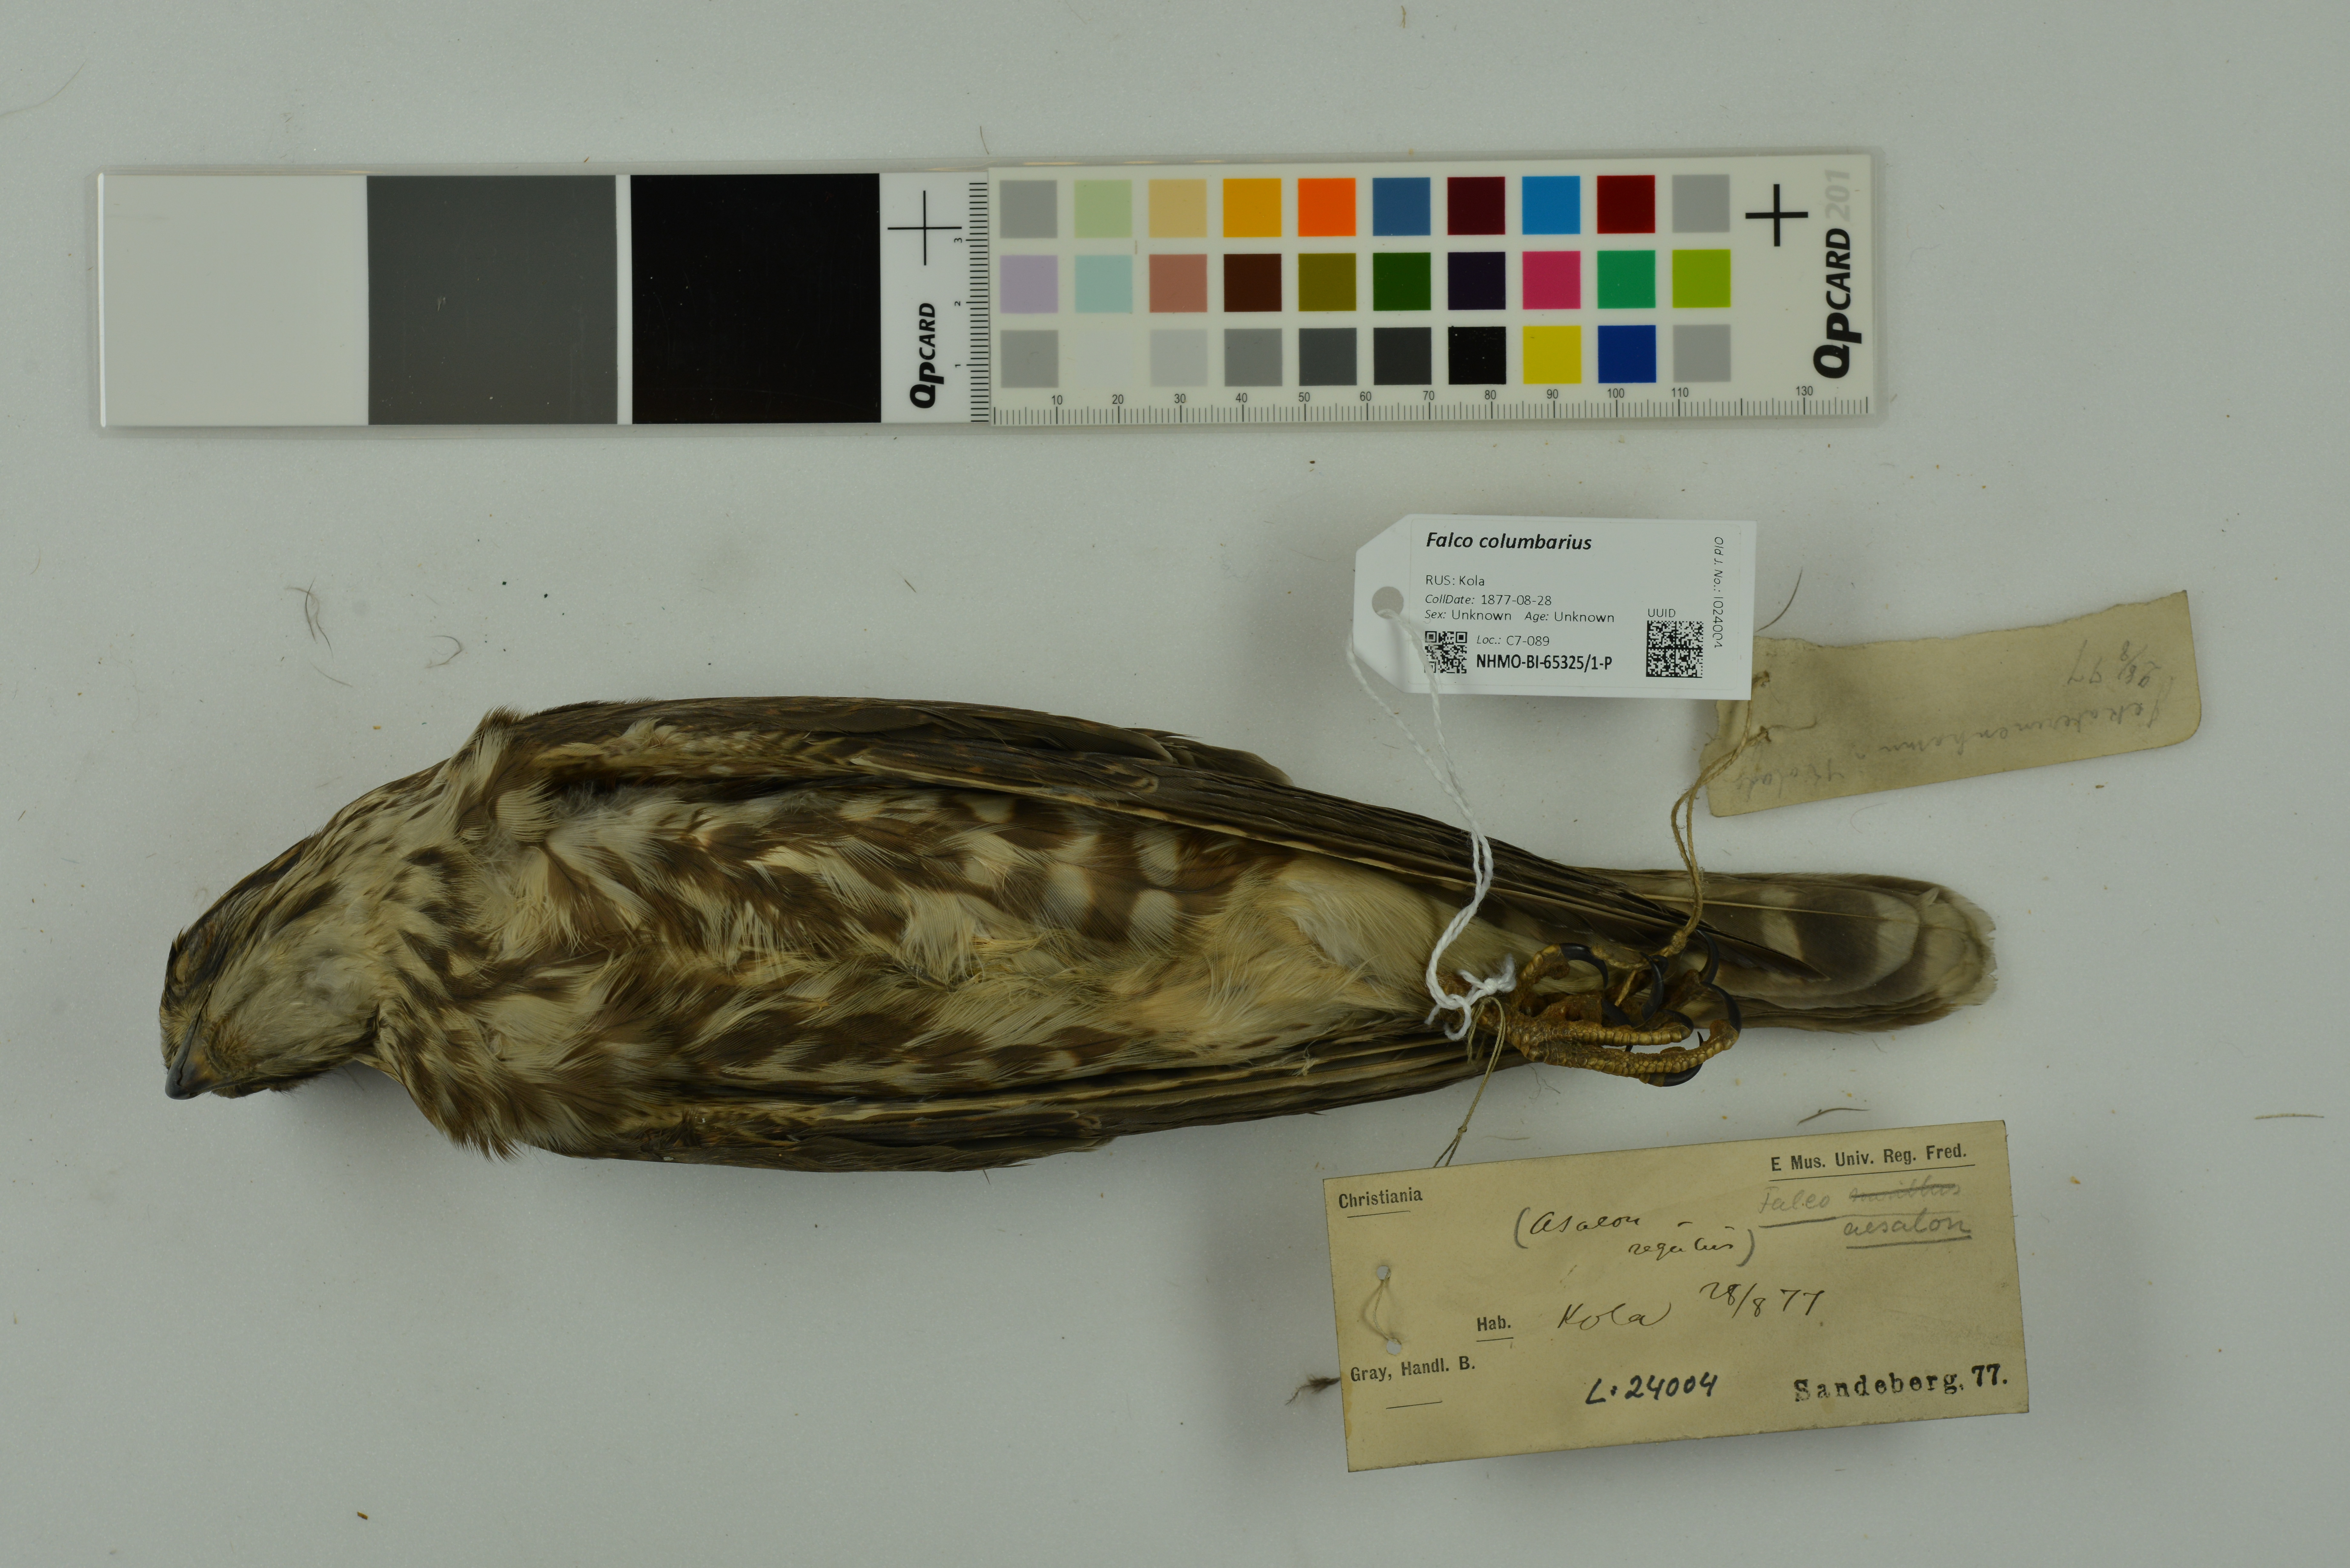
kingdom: Animalia
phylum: Chordata
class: Aves
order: Falconiformes
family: Falconidae
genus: Falco
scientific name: Falco columbarius
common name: Merlin
